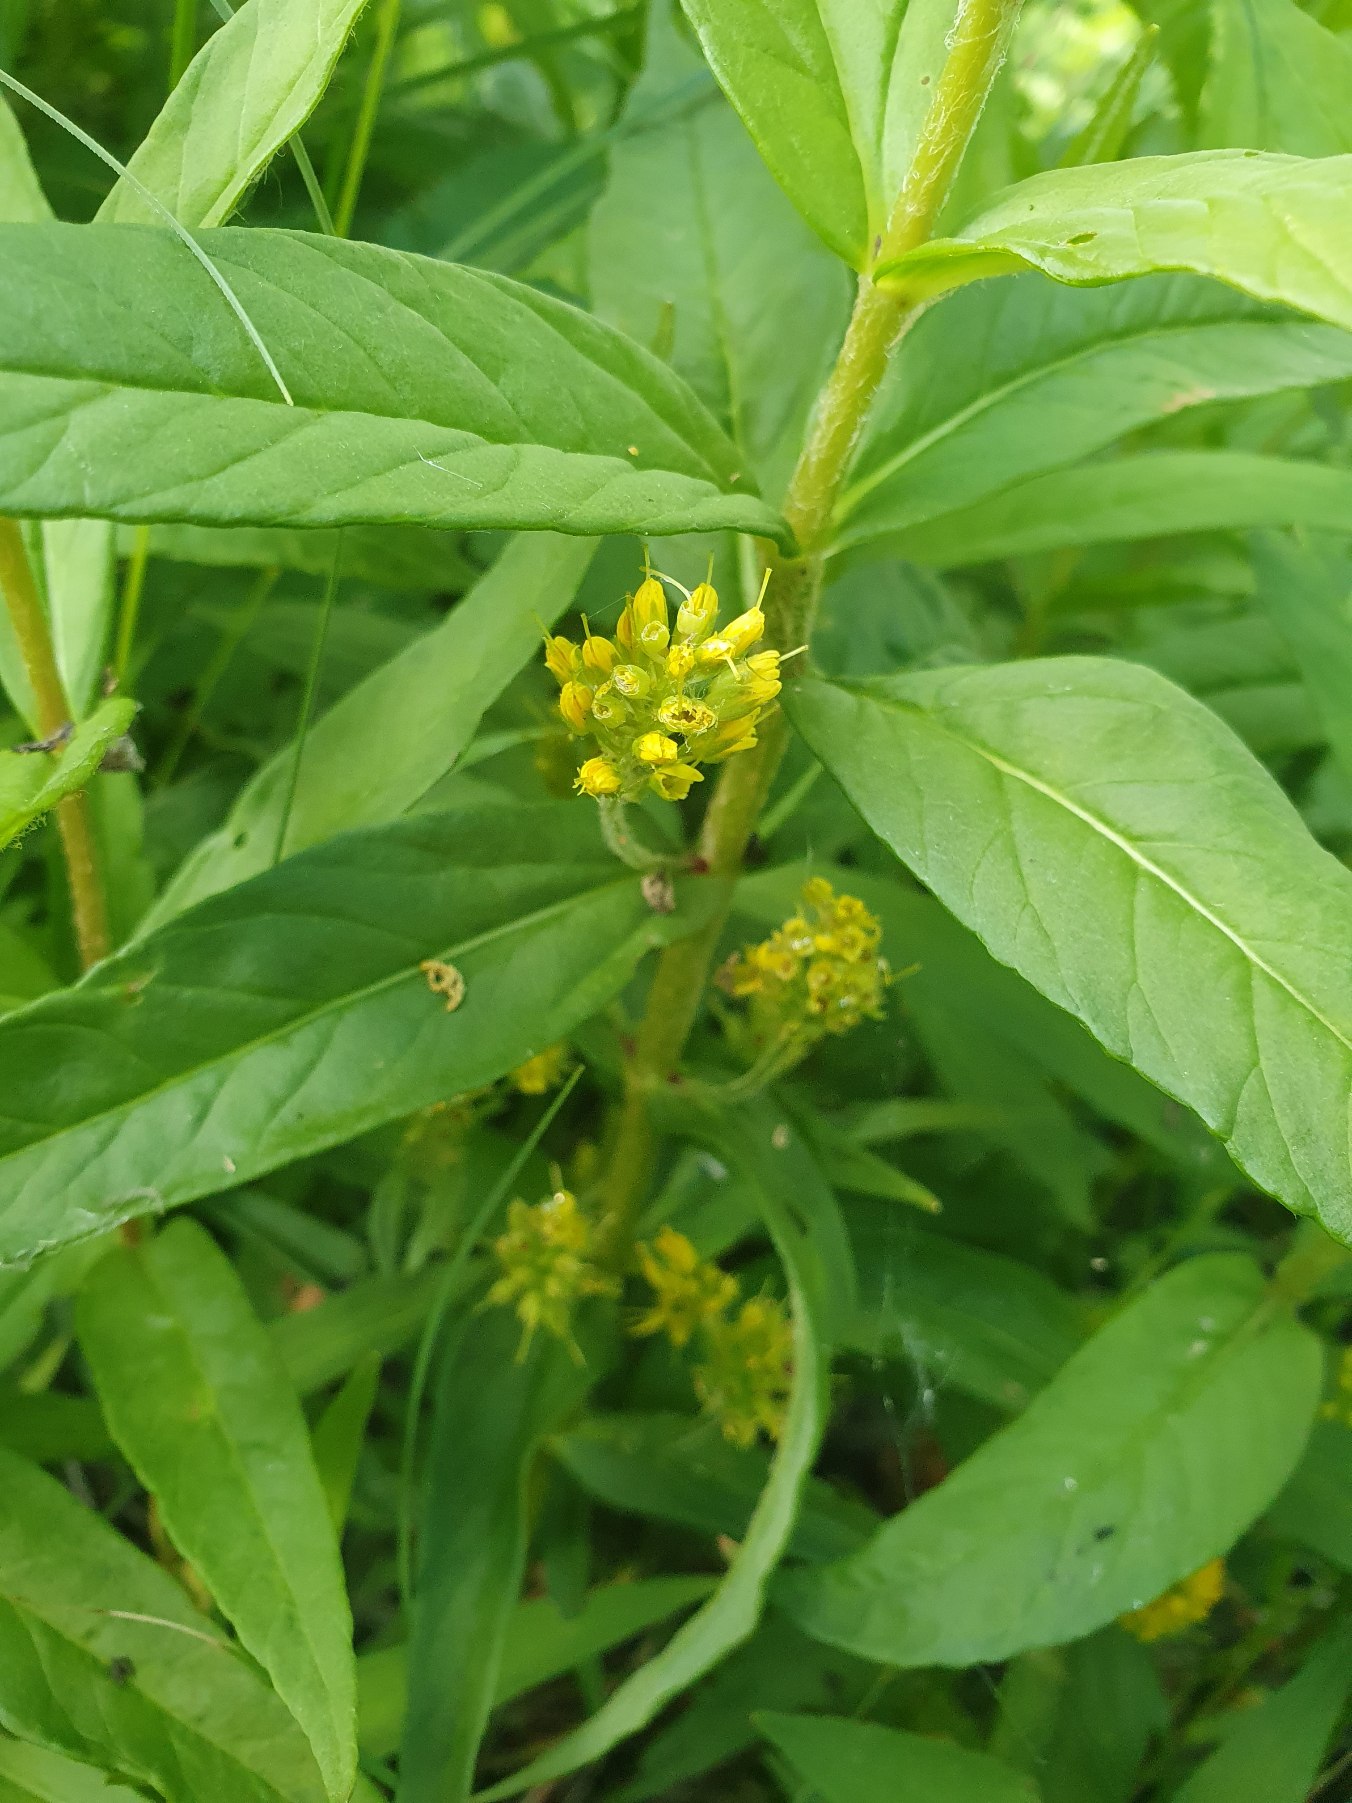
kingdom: Plantae
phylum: Tracheophyta
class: Magnoliopsida
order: Ericales
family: Primulaceae
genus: Lysimachia
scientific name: Lysimachia thyrsiflora
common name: Dusk-fredløs
